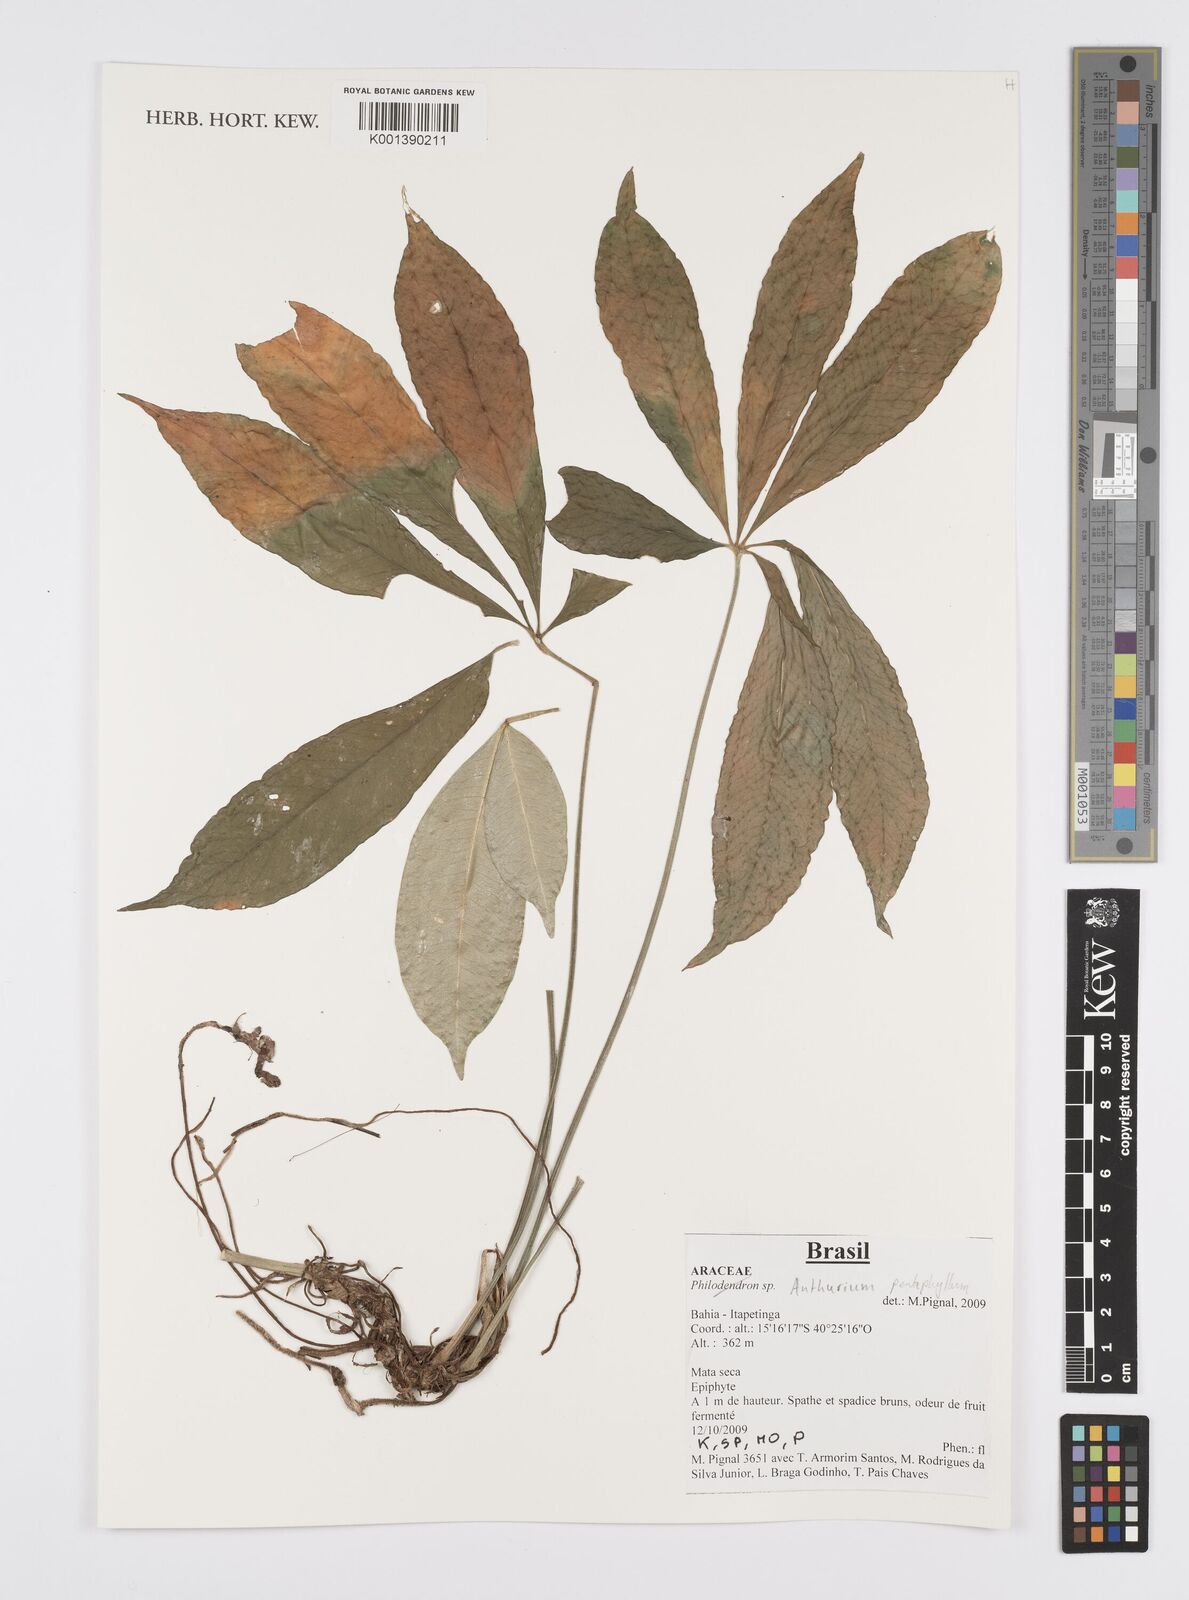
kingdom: Plantae
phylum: Tracheophyta
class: Liliopsida
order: Alismatales
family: Araceae
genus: Anthurium
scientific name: Anthurium pentaphyllum
